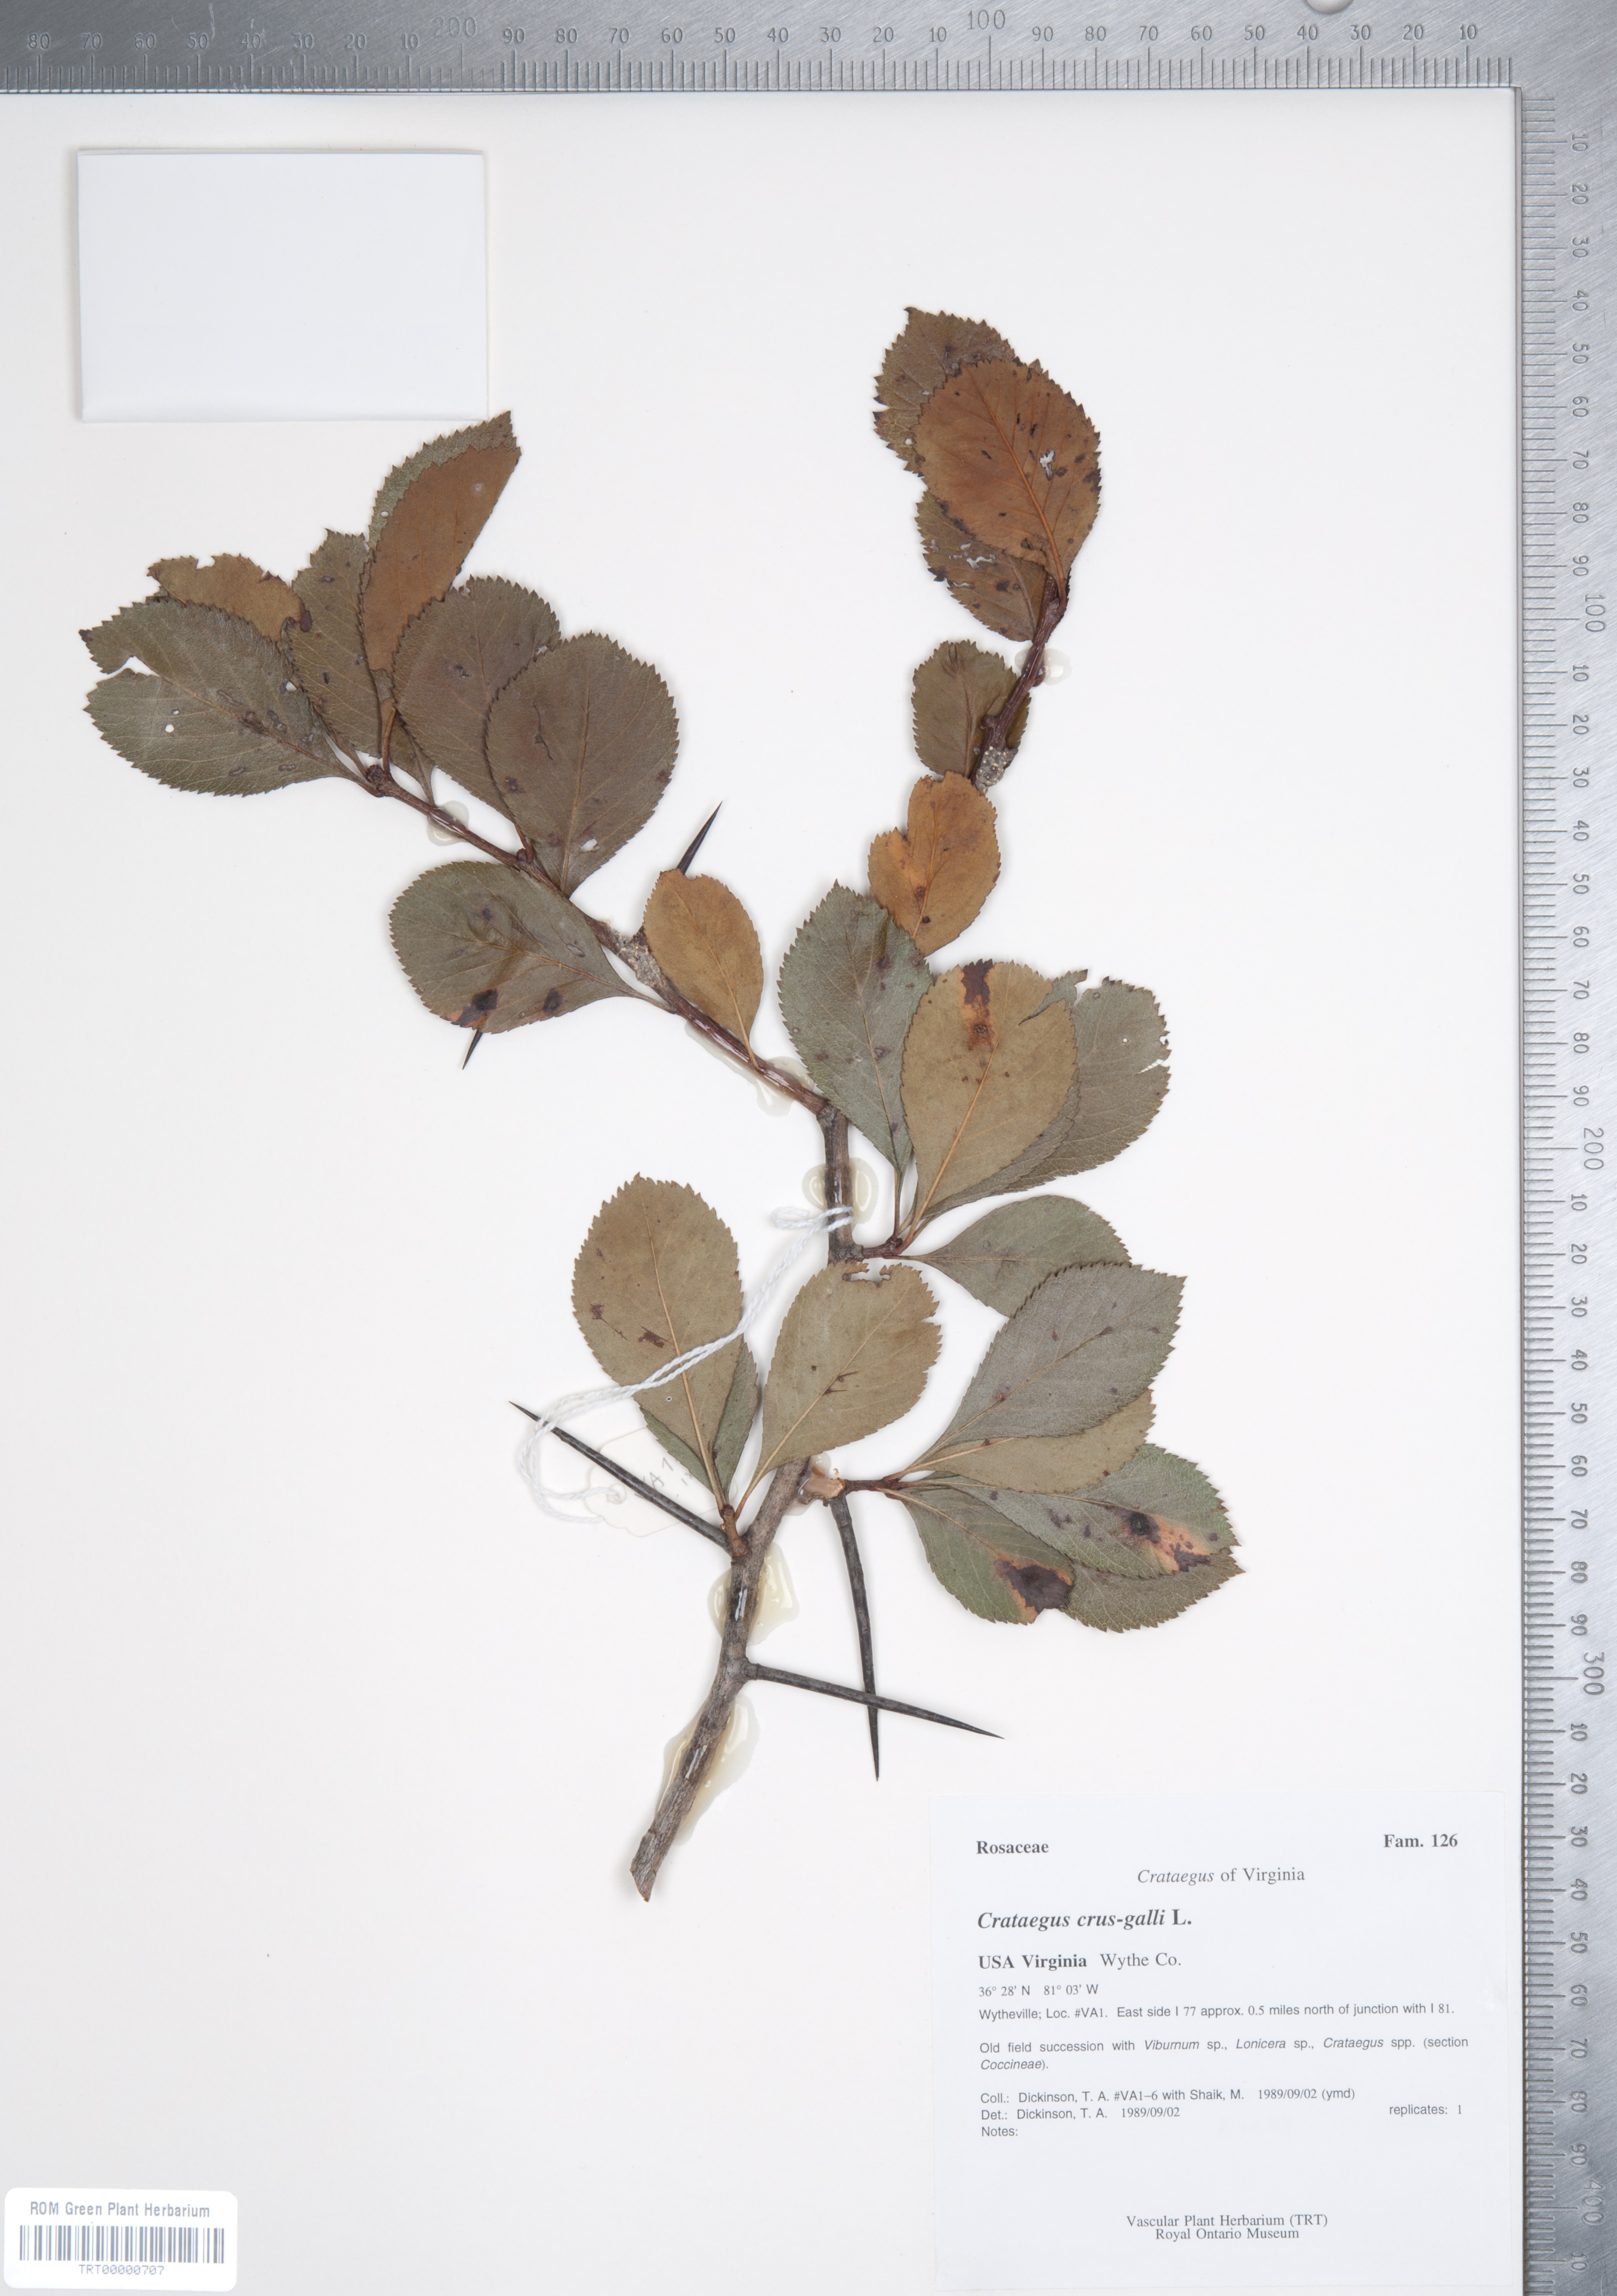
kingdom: Plantae
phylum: Tracheophyta
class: Magnoliopsida
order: Rosales
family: Rosaceae
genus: Crataegus
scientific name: Crataegus crus-galli
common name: Cockspurthorn
